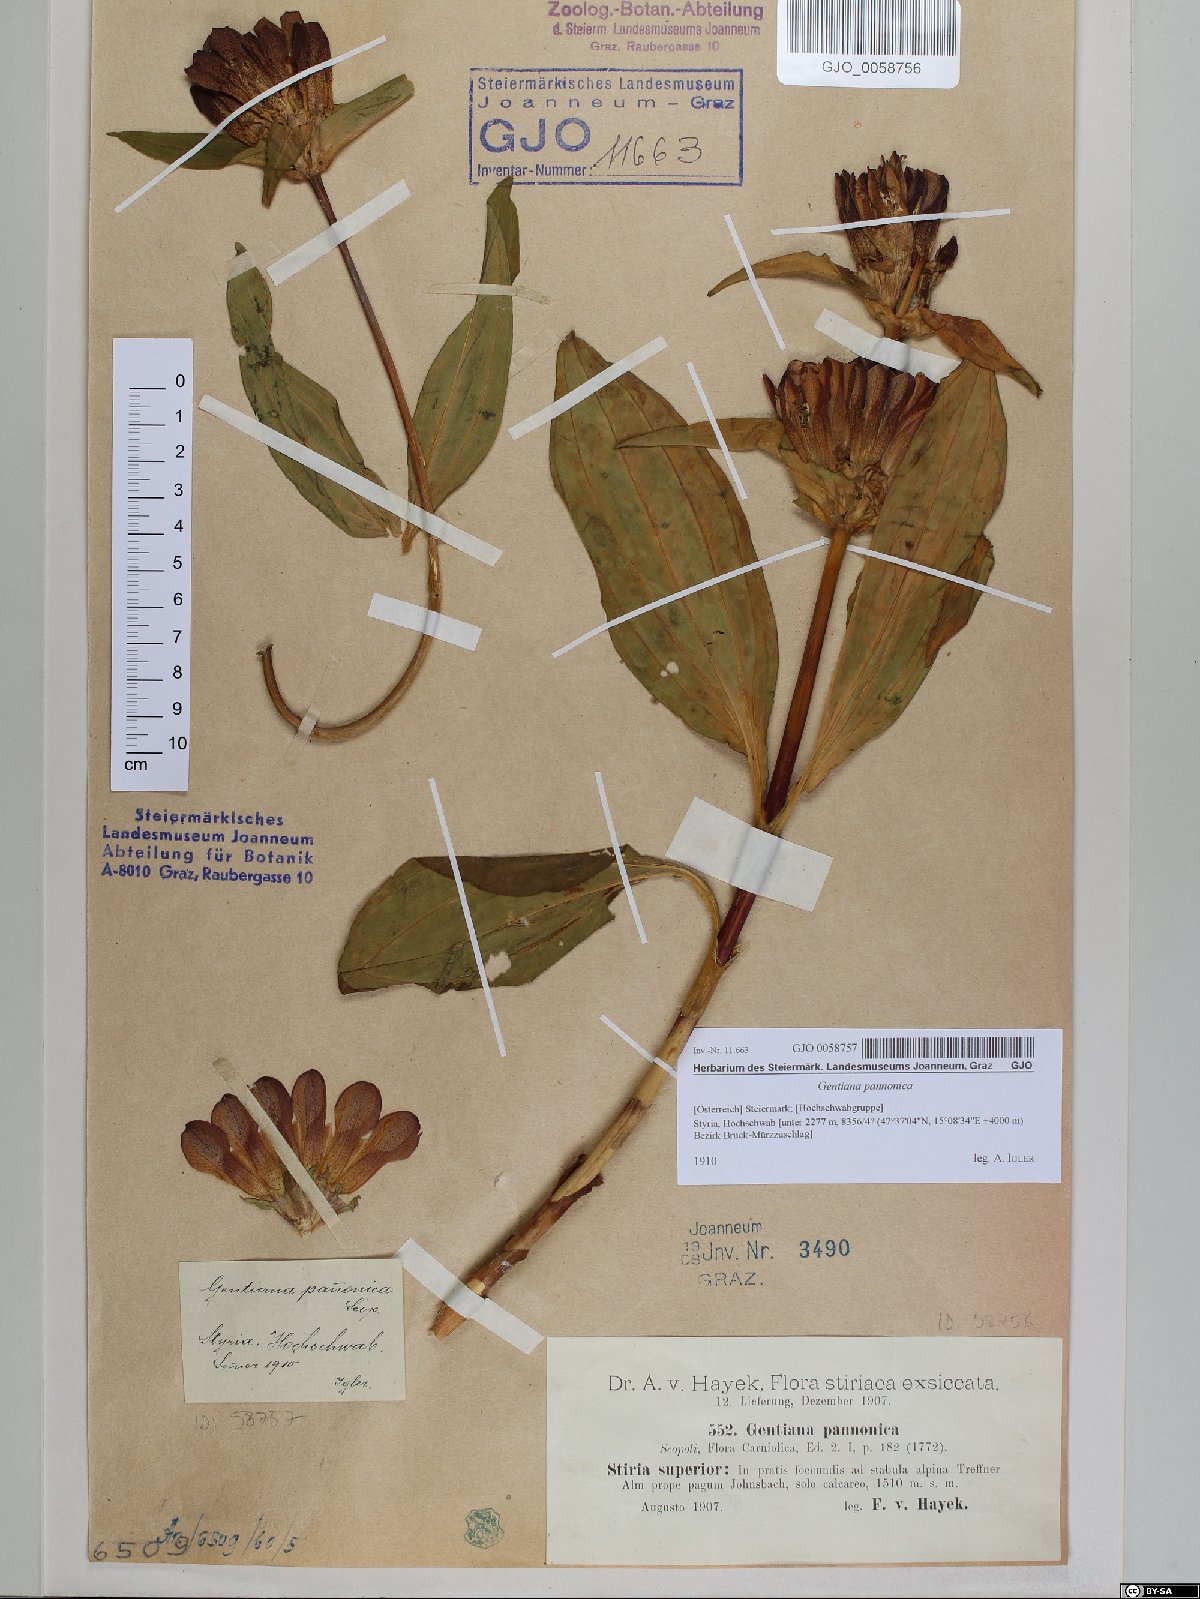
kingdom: Plantae
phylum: Tracheophyta
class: Magnoliopsida
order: Gentianales
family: Gentianaceae
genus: Gentiana
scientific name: Gentiana pannonica
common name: Hungarian gentian
